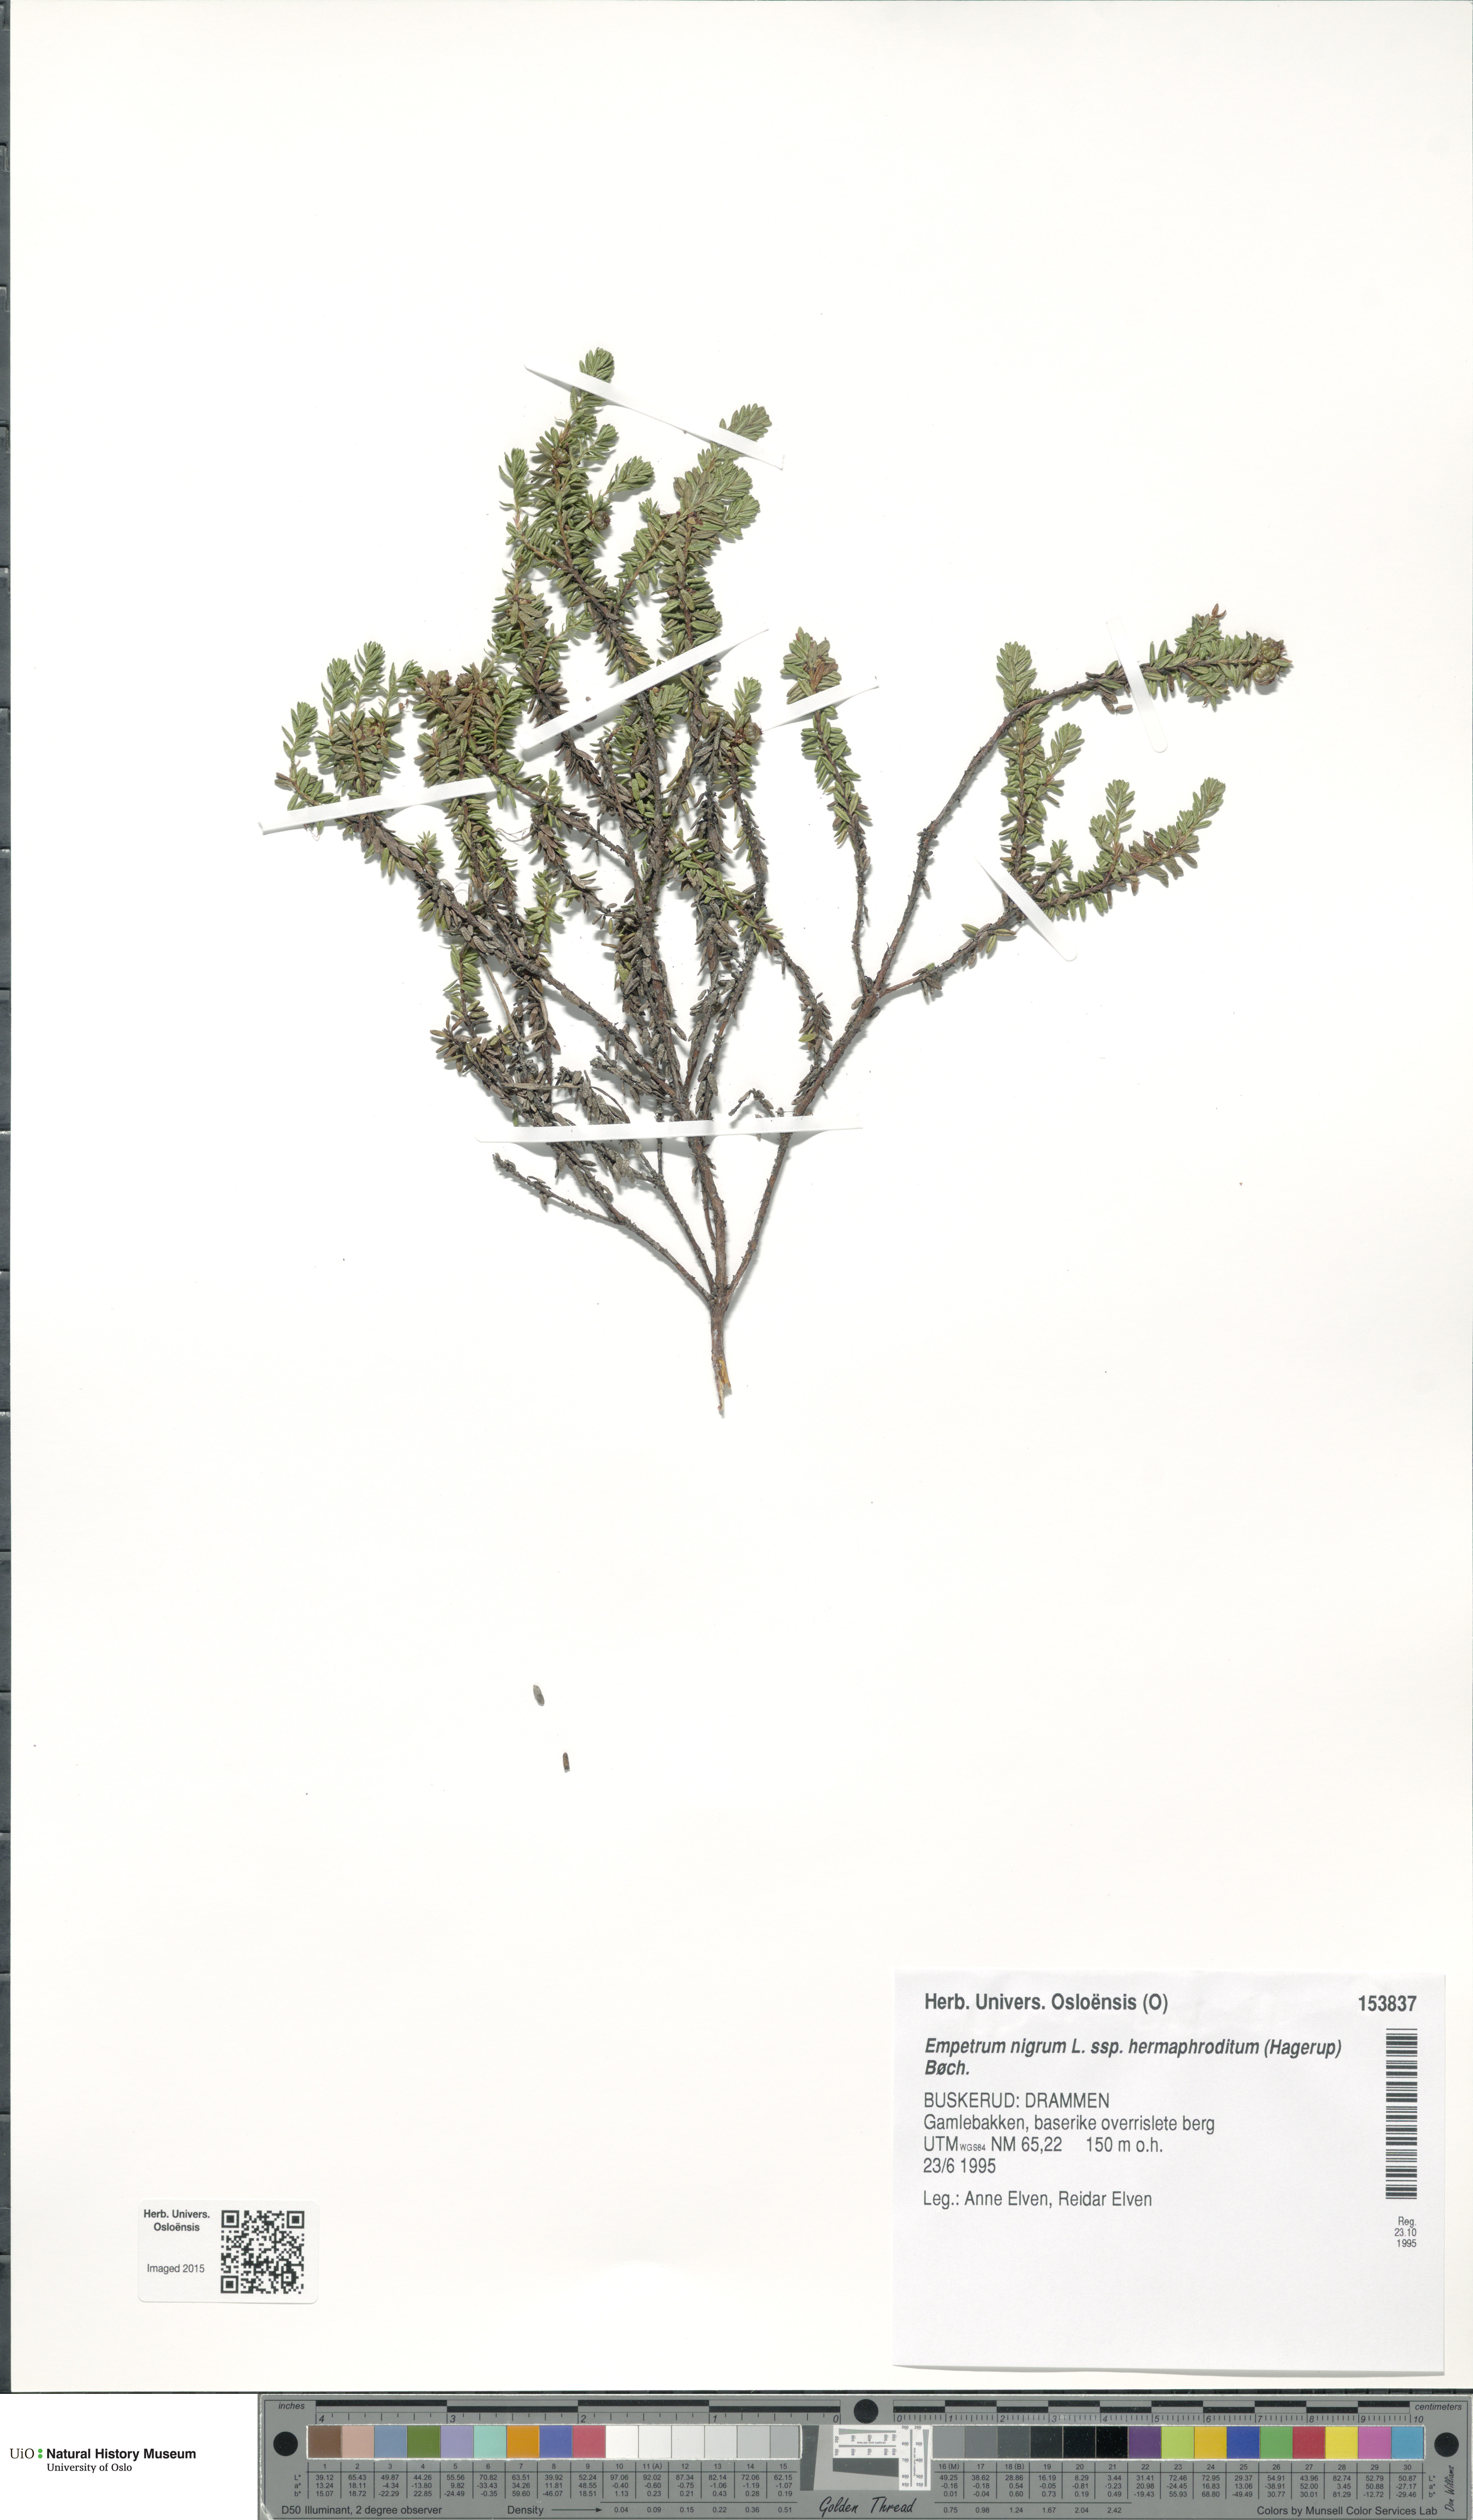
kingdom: Plantae
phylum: Tracheophyta
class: Magnoliopsida
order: Ericales
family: Ericaceae
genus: Empetrum
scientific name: Empetrum hermaphroditum
